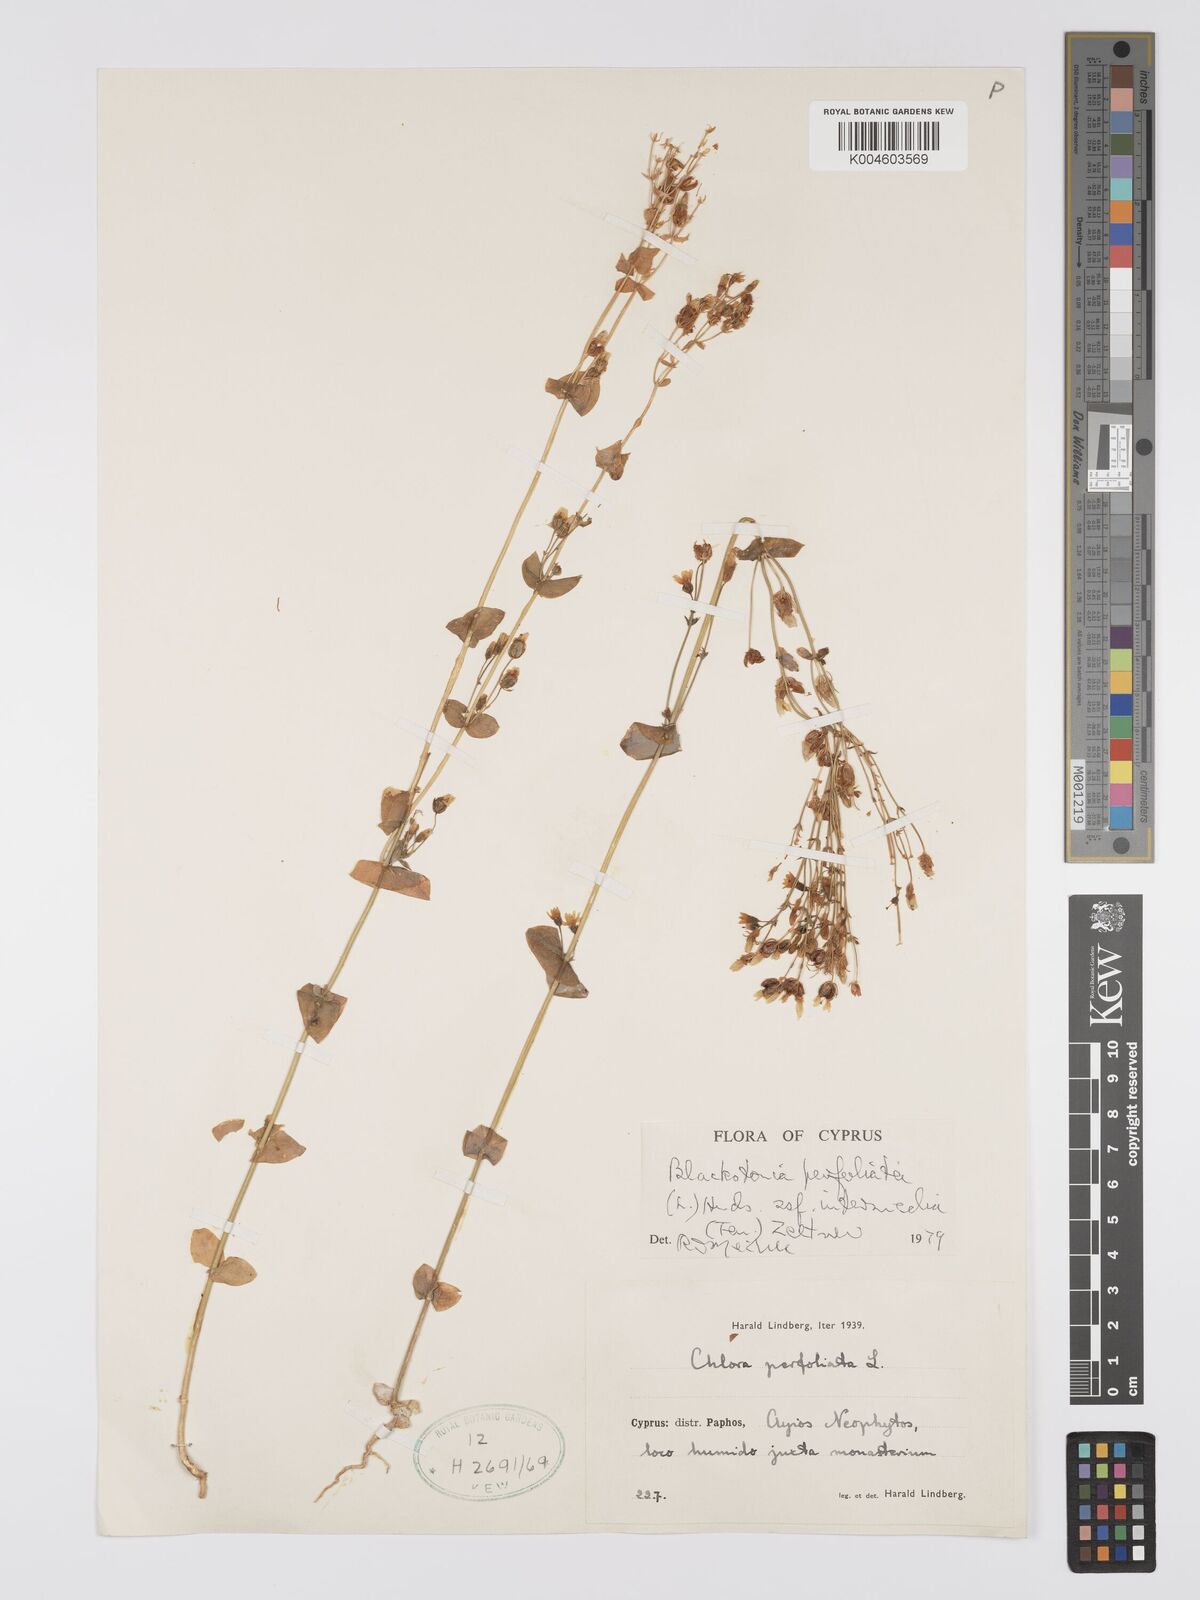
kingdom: Plantae
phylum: Tracheophyta
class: Magnoliopsida
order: Gentianales
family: Gentianaceae
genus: Blackstonia
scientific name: Blackstonia perfoliata
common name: Yellow-wort
